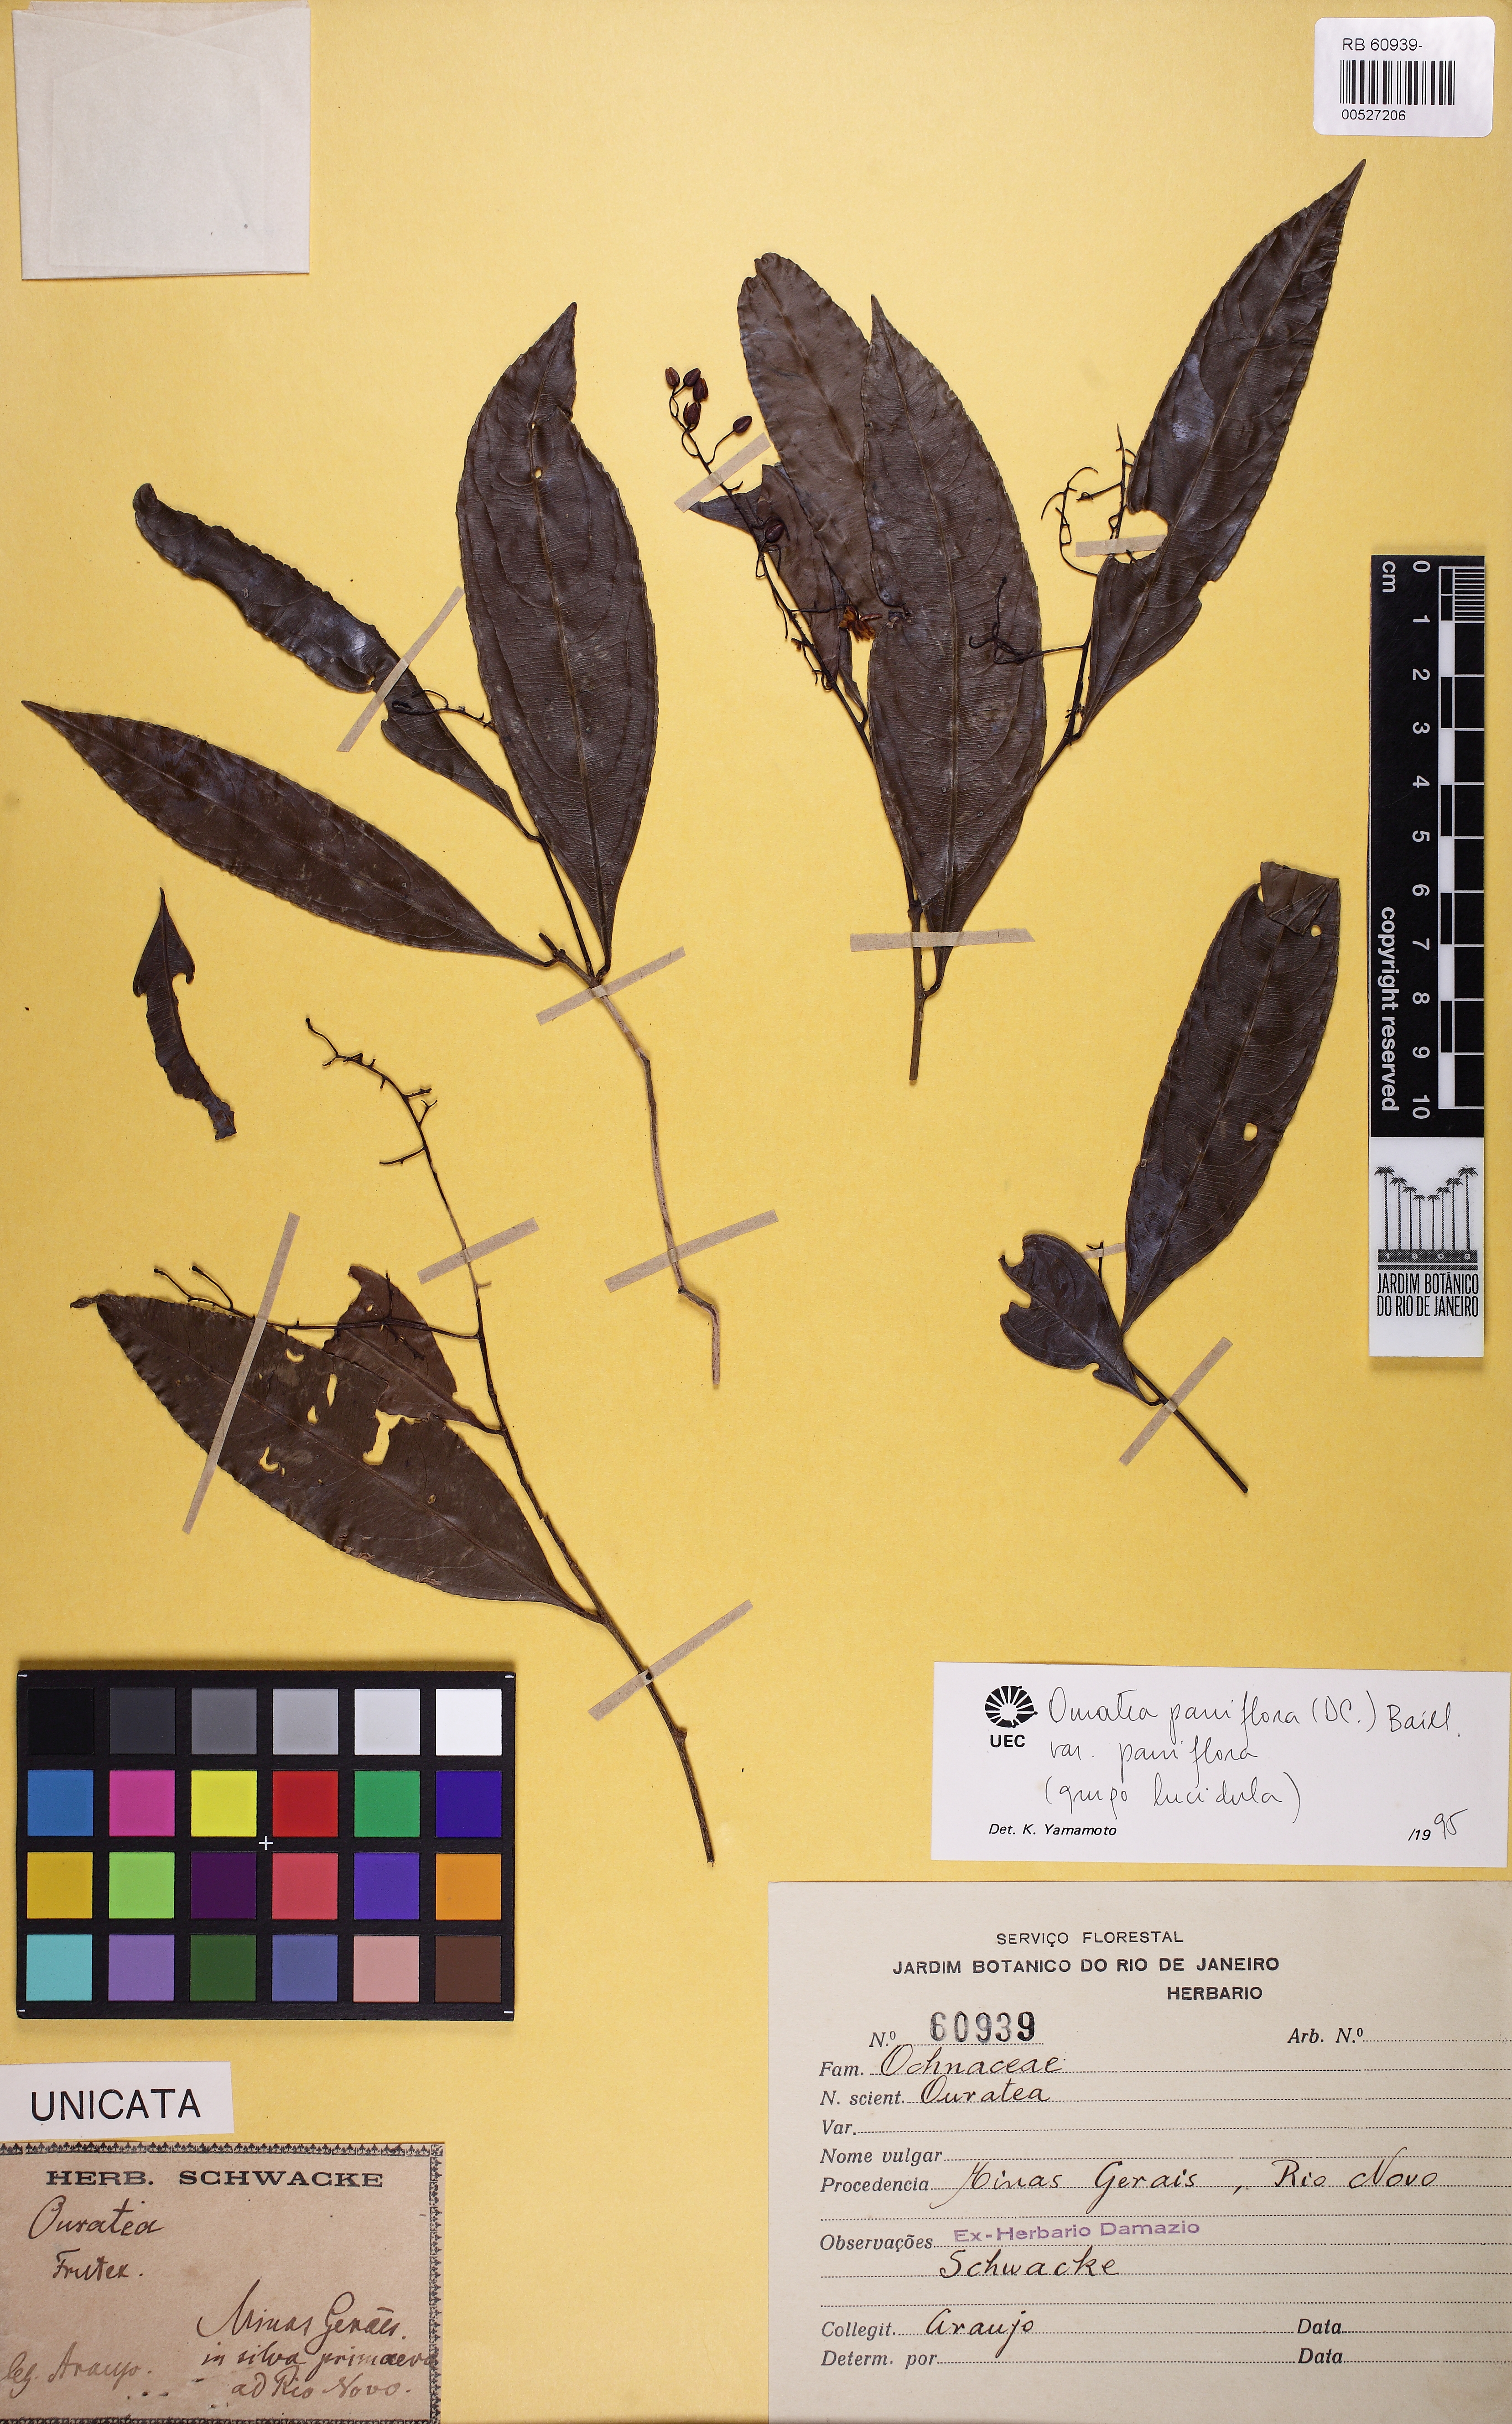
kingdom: Plantae
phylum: Tracheophyta
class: Magnoliopsida
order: Malpighiales
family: Ochnaceae
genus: Ouratea
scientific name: Ouratea parviflora
